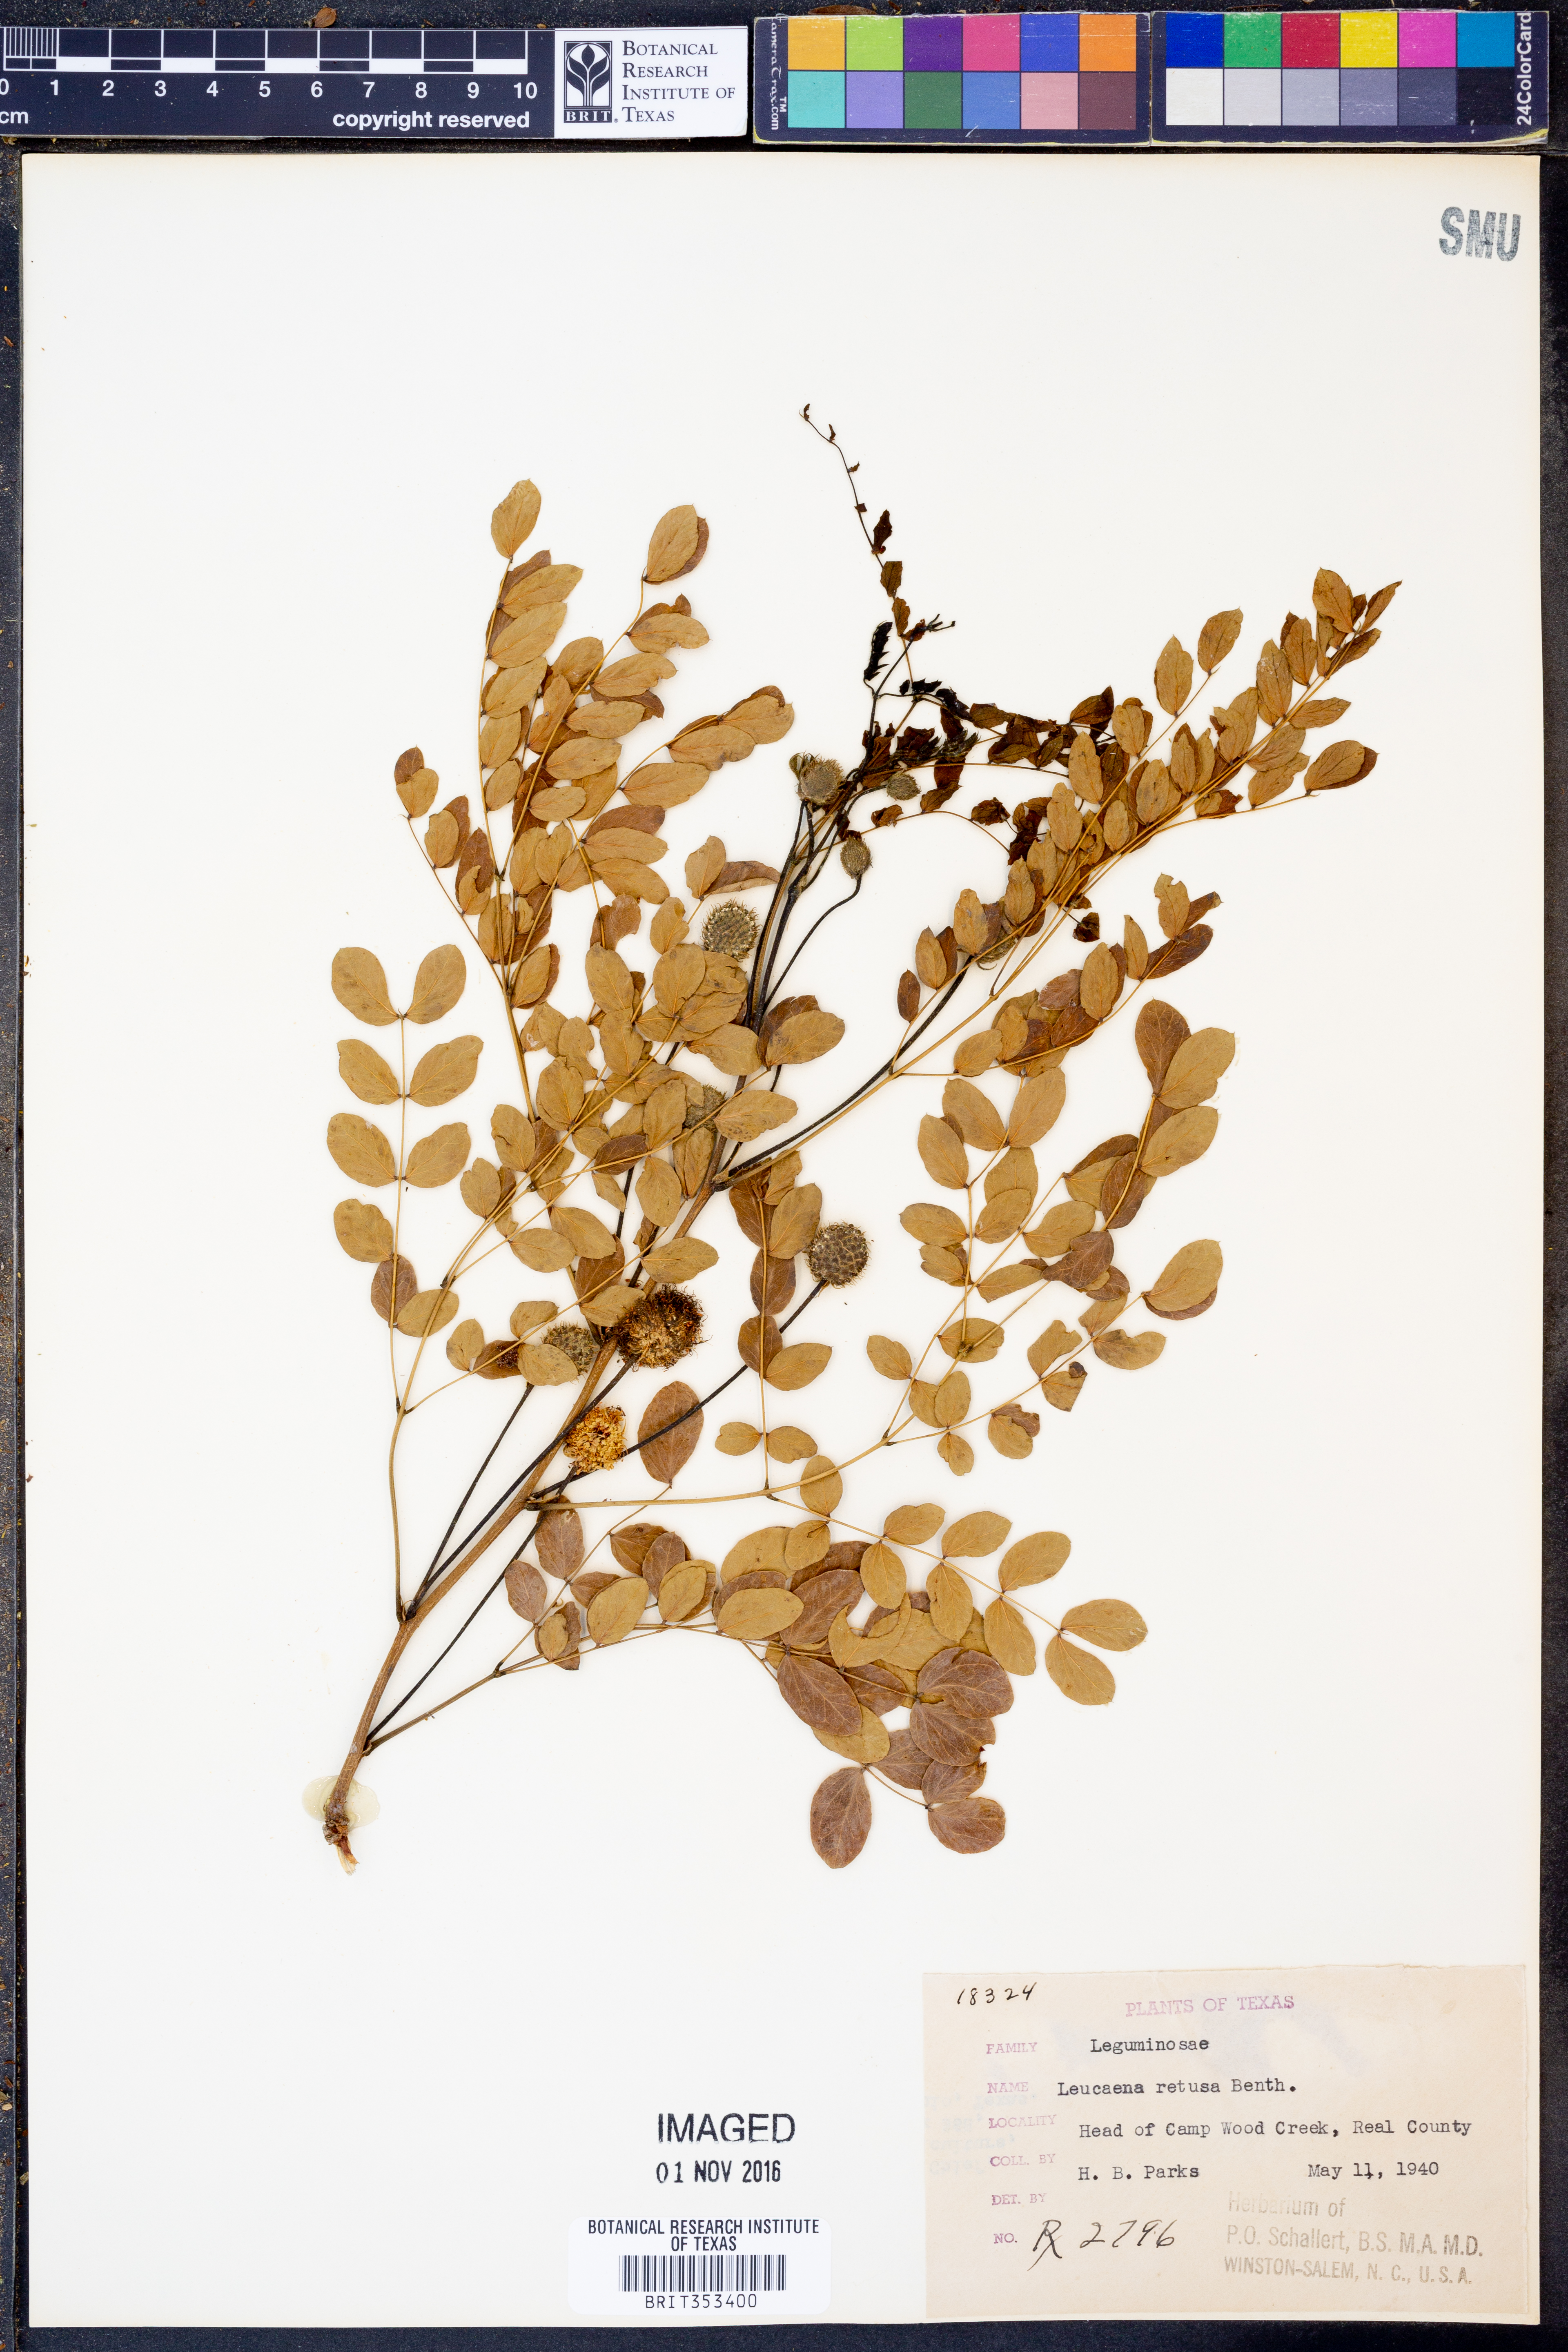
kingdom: Plantae
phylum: Tracheophyta
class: Magnoliopsida
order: Fabales
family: Fabaceae
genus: Leucaena
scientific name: Leucaena retusa
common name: Littleleaf leadtree
